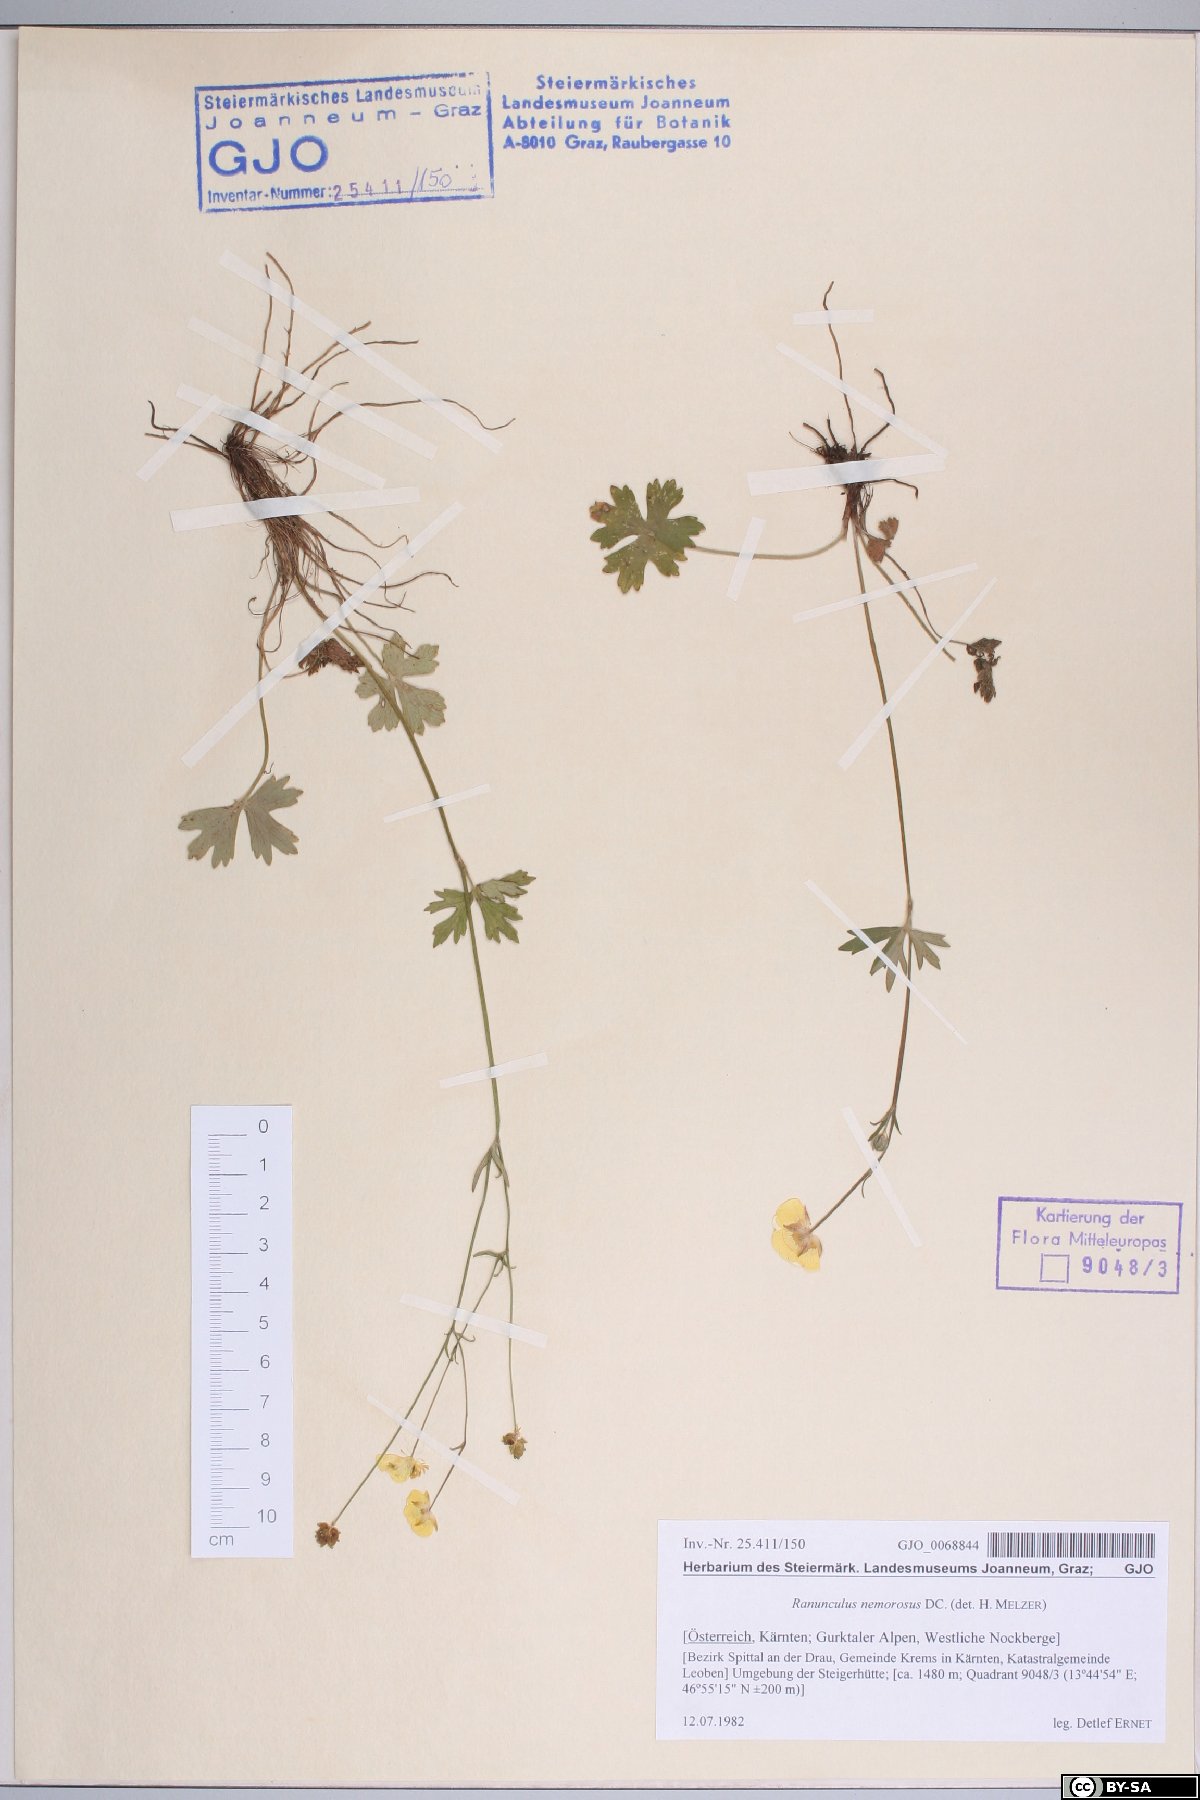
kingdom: Plantae
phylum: Tracheophyta
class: Magnoliopsida
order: Ranunculales
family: Ranunculaceae
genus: Ranunculus
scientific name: Ranunculus polyanthemos
